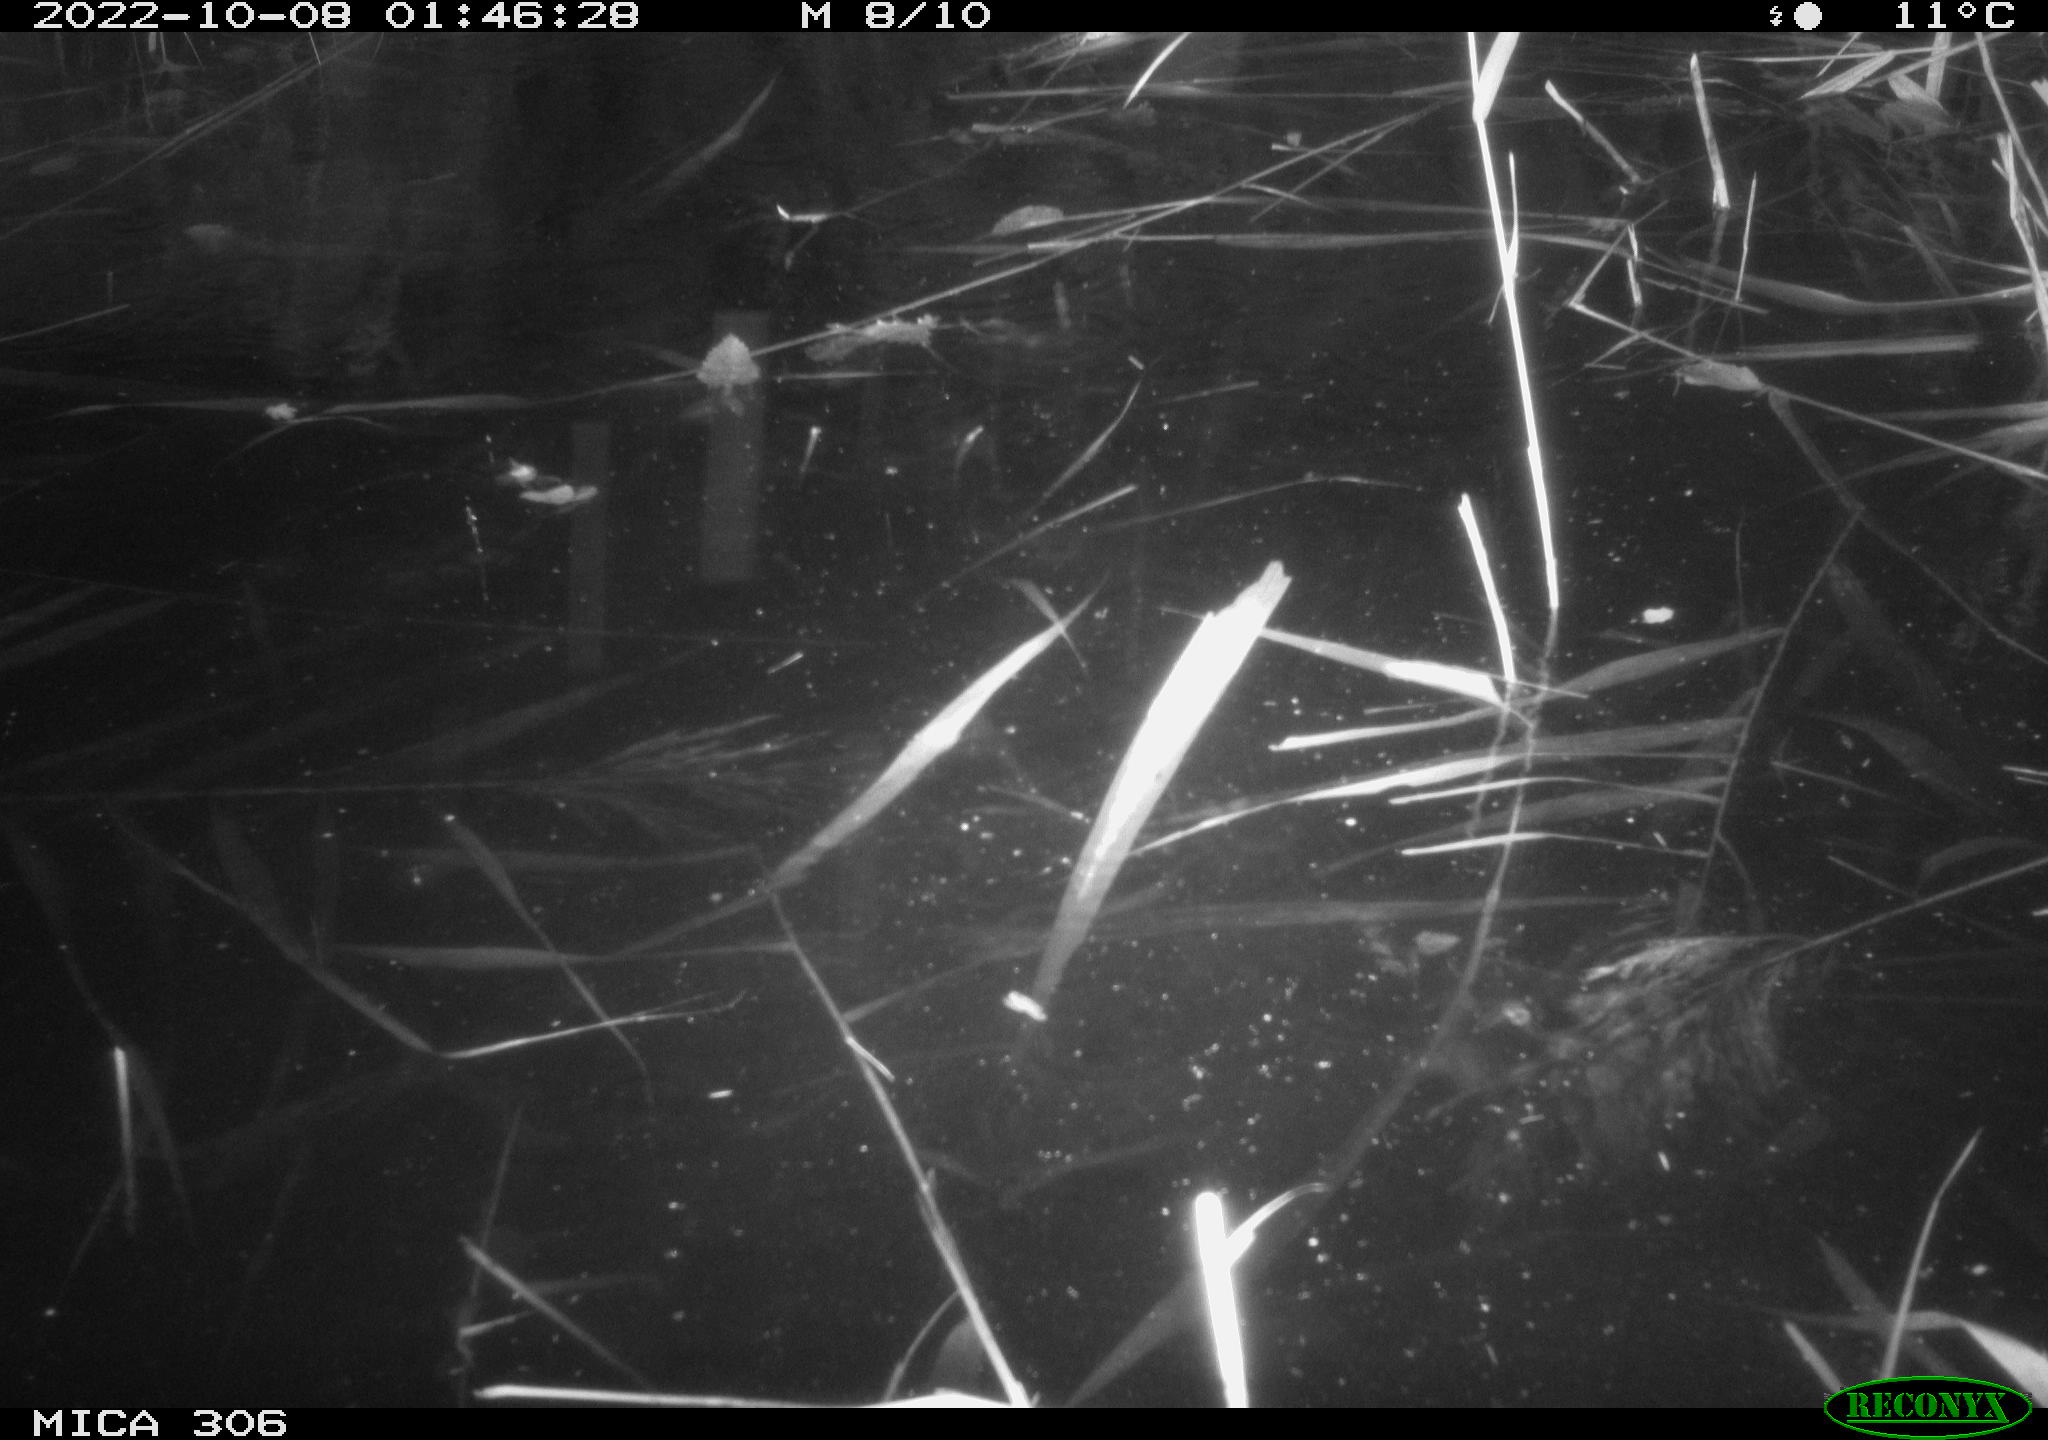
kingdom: Animalia
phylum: Chordata
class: Mammalia
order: Rodentia
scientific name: Rodentia
